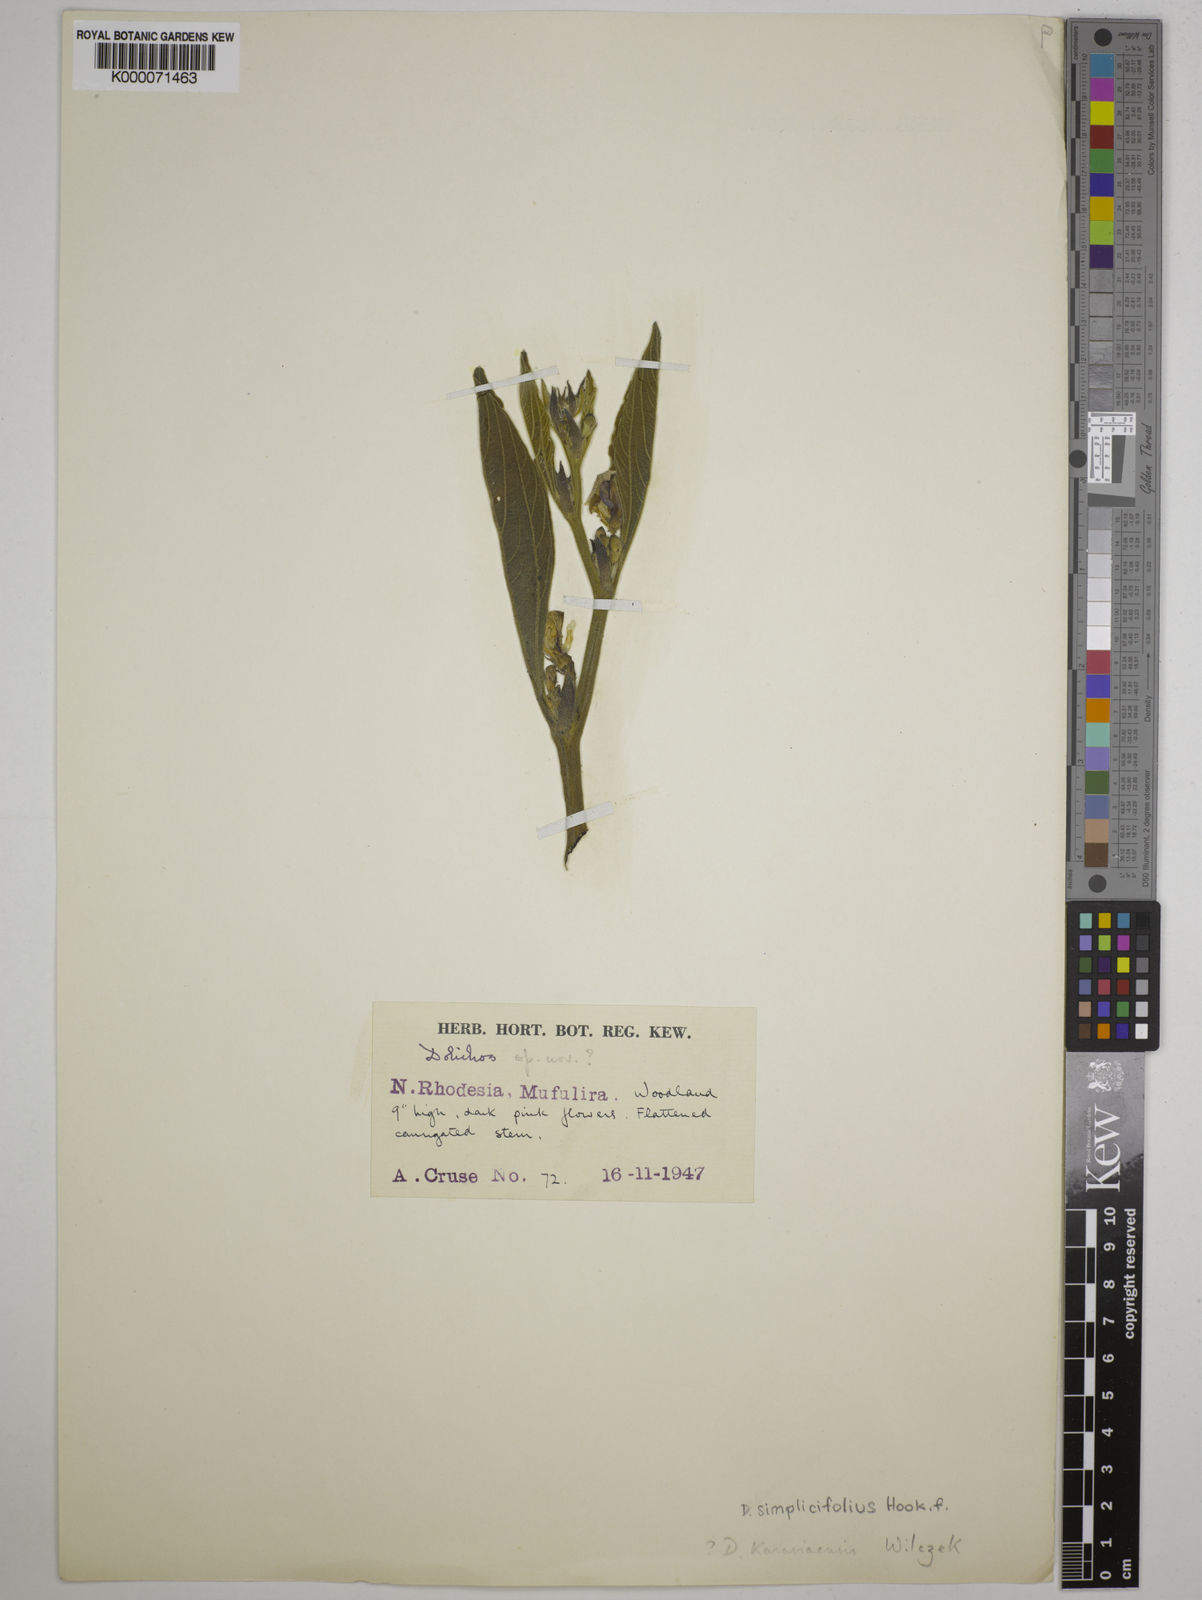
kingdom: Plantae
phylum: Tracheophyta
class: Magnoliopsida
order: Fabales
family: Fabaceae
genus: Dolichos
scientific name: Dolichos simplicifolius
